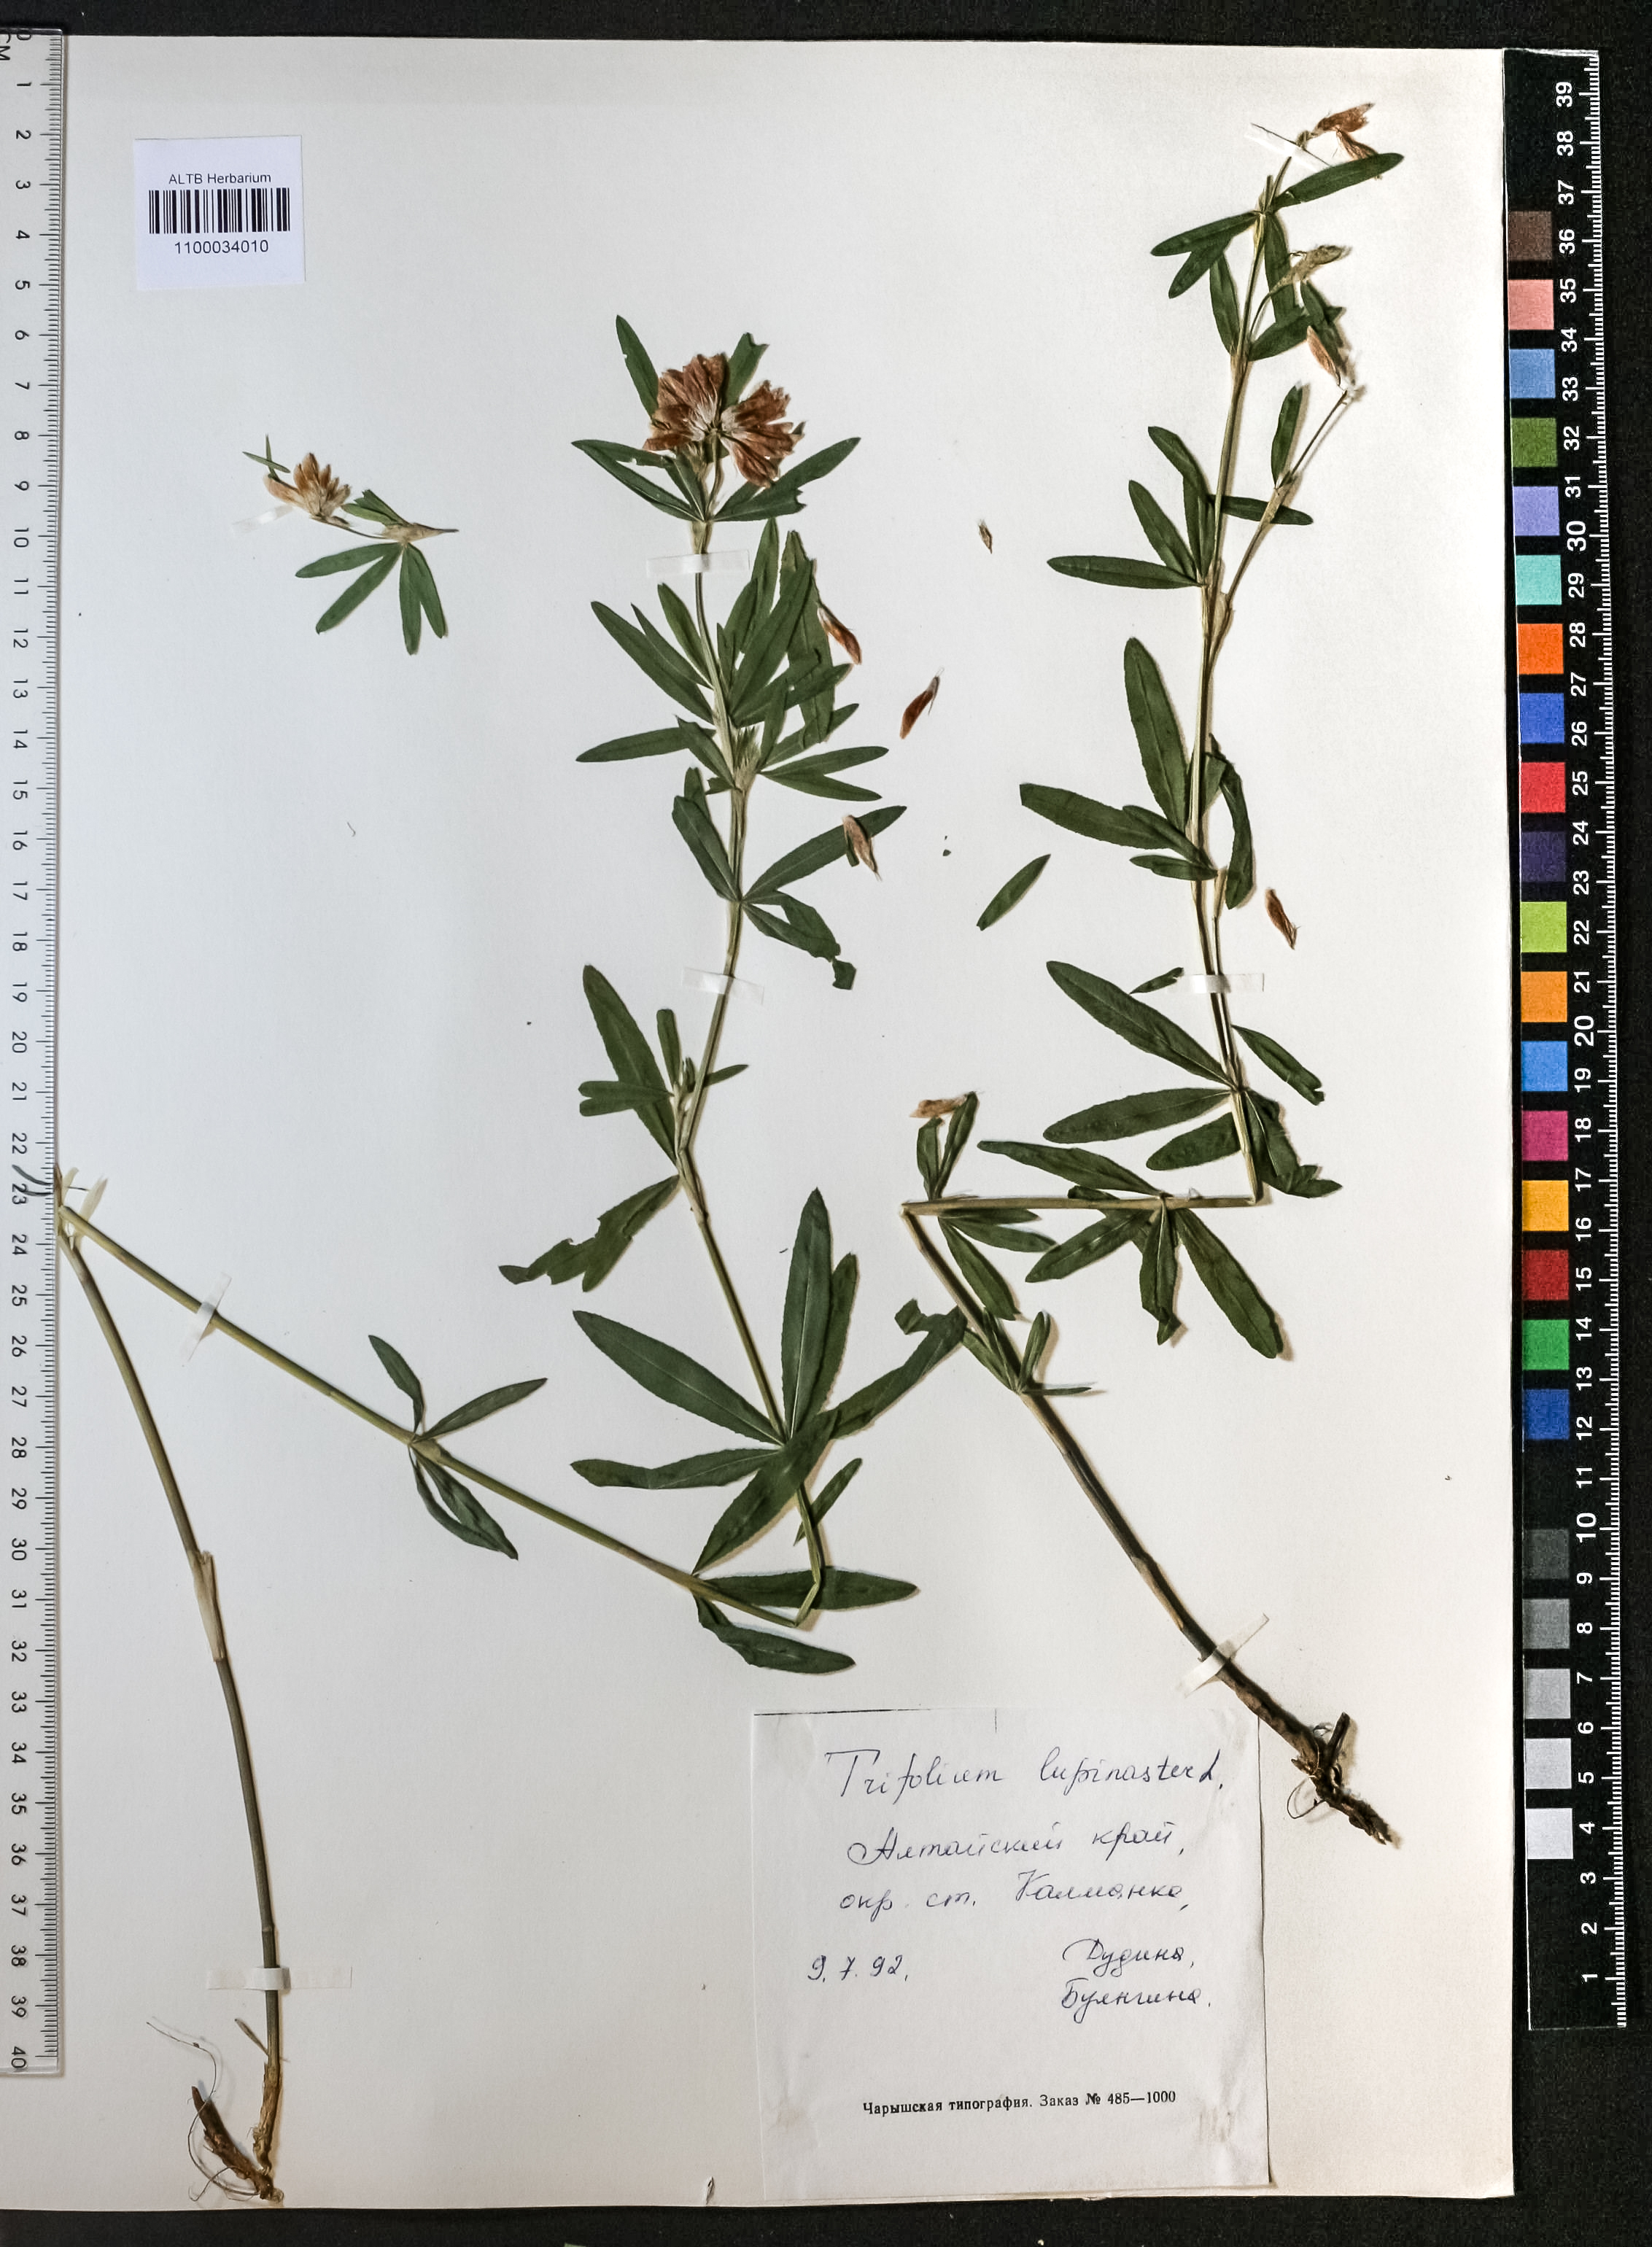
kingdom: Plantae
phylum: Tracheophyta
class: Magnoliopsida
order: Fabales
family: Fabaceae
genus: Trifolium
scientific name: Trifolium lupinaster
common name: Lupine clover
